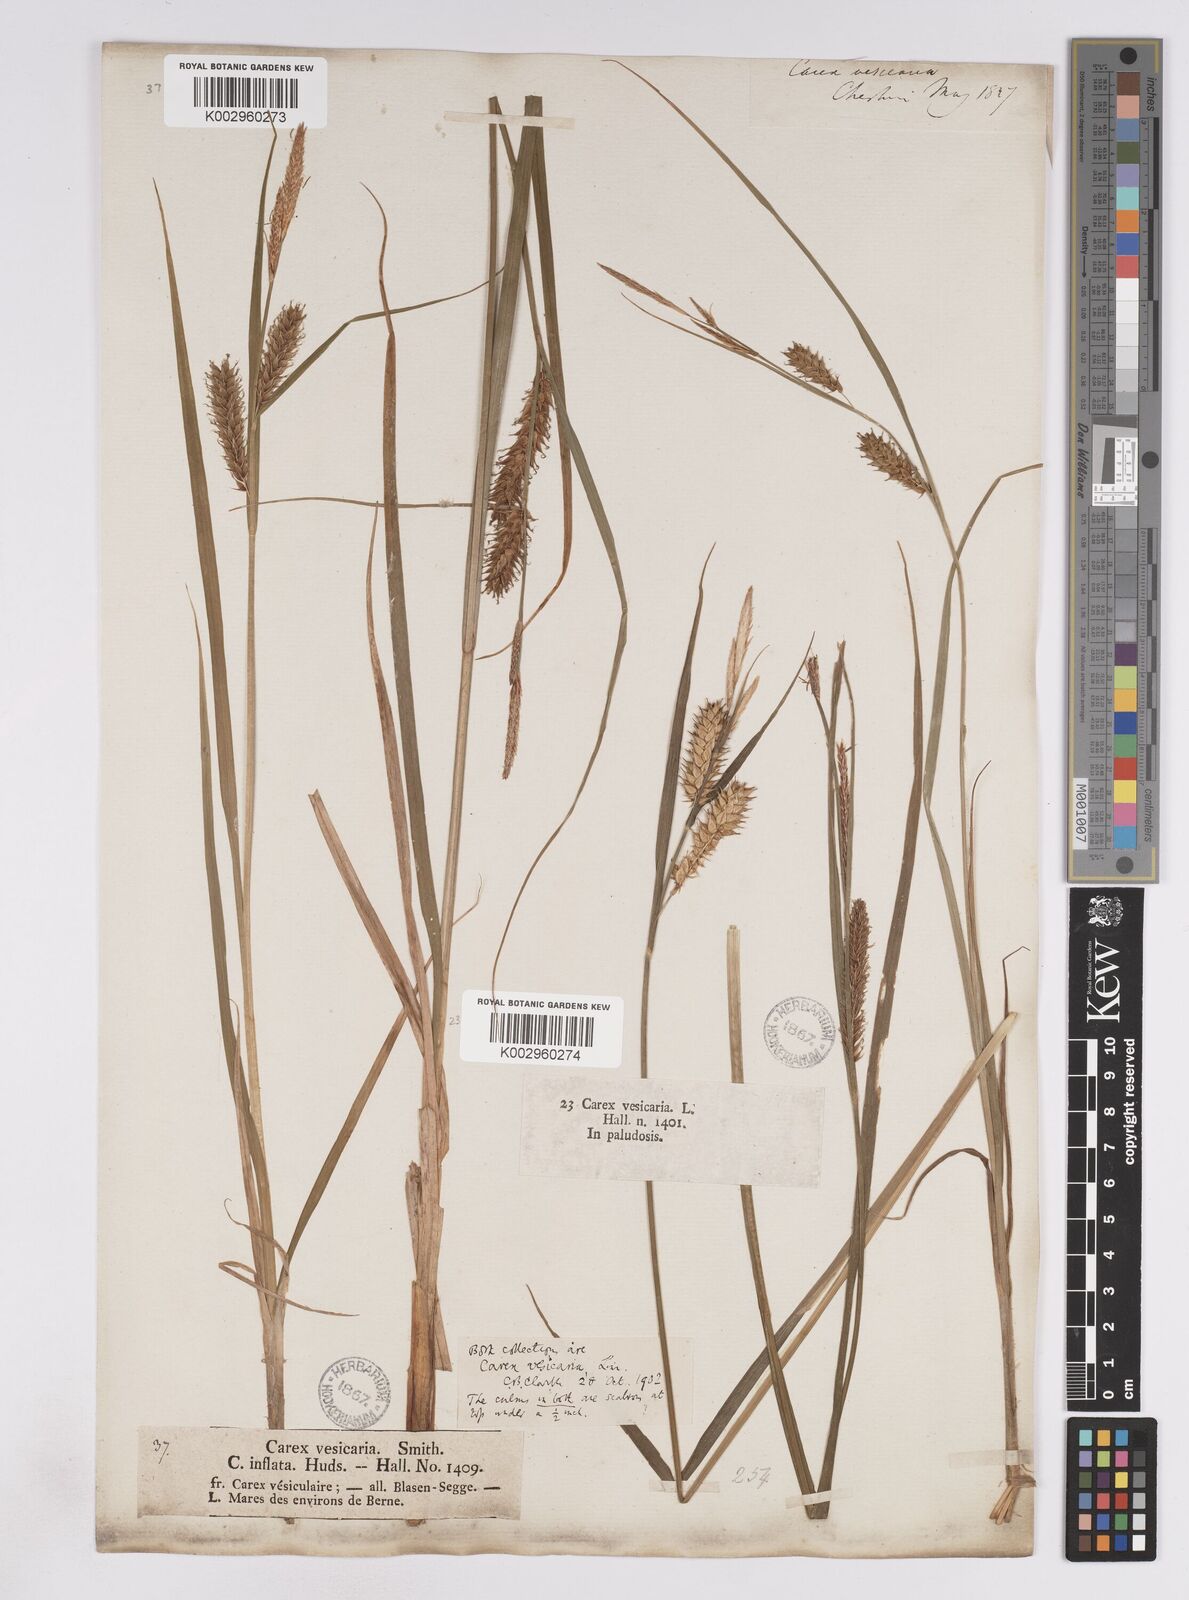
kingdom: Plantae
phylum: Tracheophyta
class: Liliopsida
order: Poales
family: Cyperaceae
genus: Carex
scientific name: Carex vesicaria
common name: Bladder-sedge
